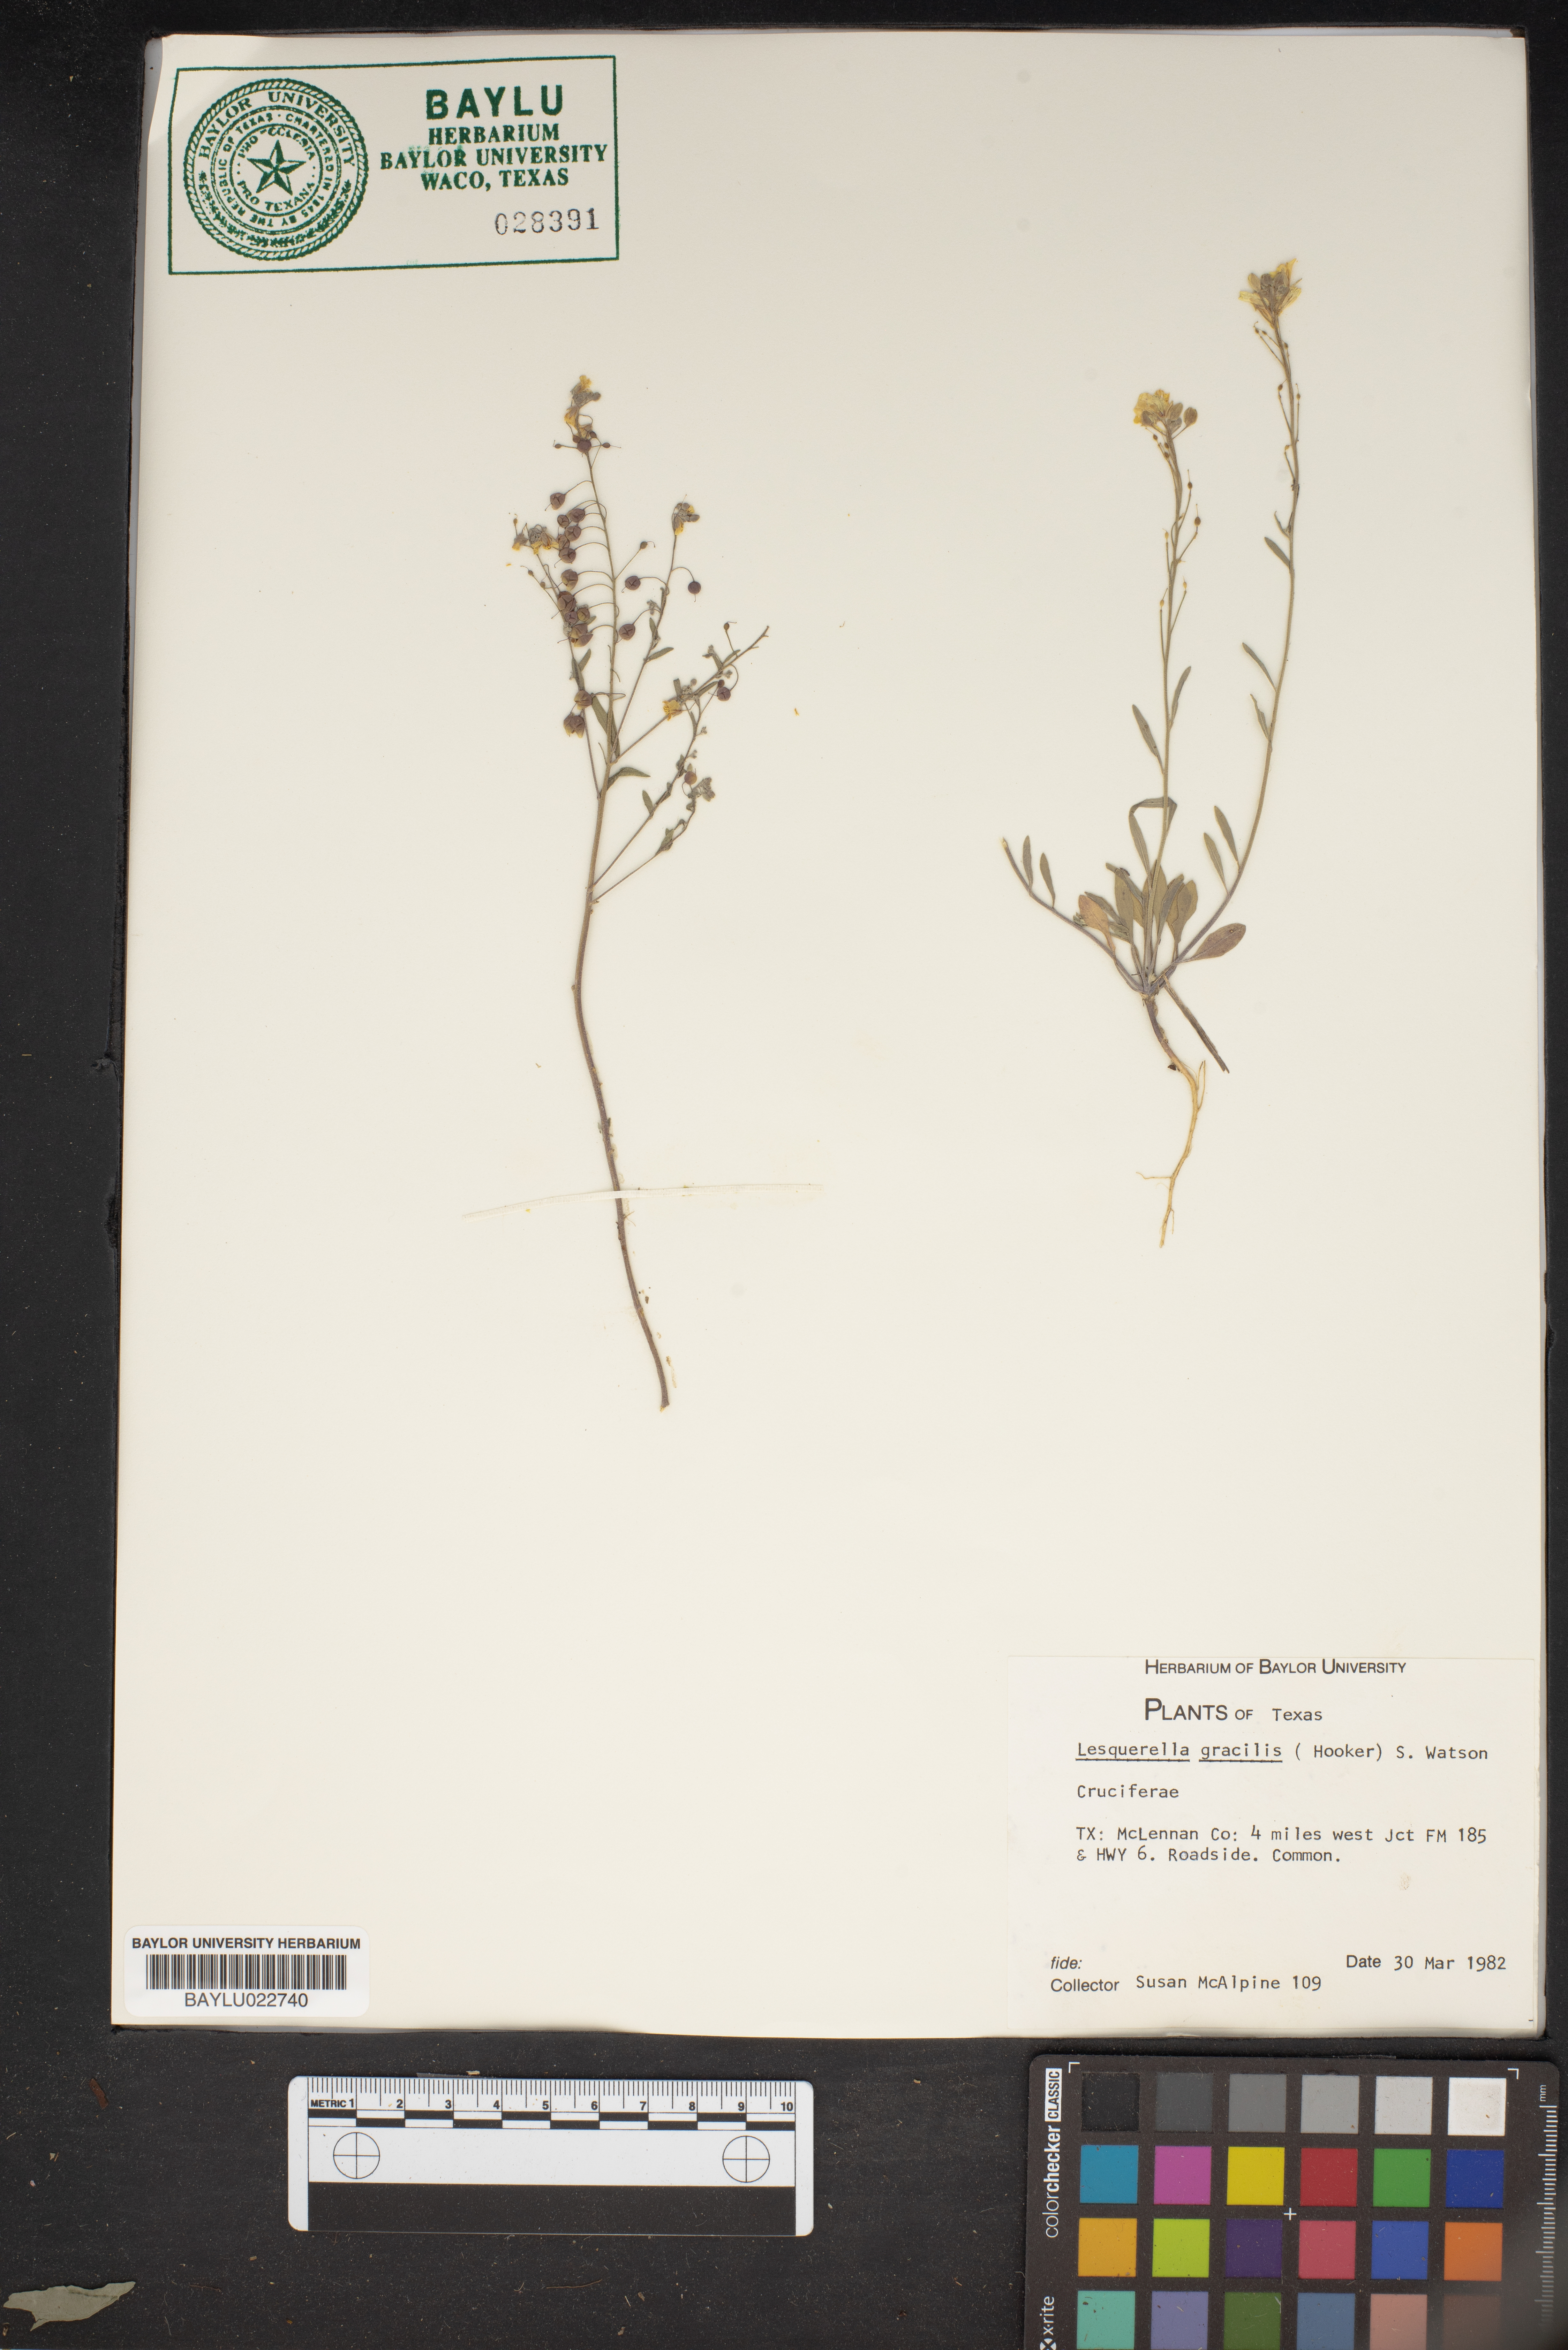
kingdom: Plantae
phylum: Tracheophyta
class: Magnoliopsida
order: Brassicales
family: Brassicaceae
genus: Physaria
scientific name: Physaria gracilis
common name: Spreading bladderpod
